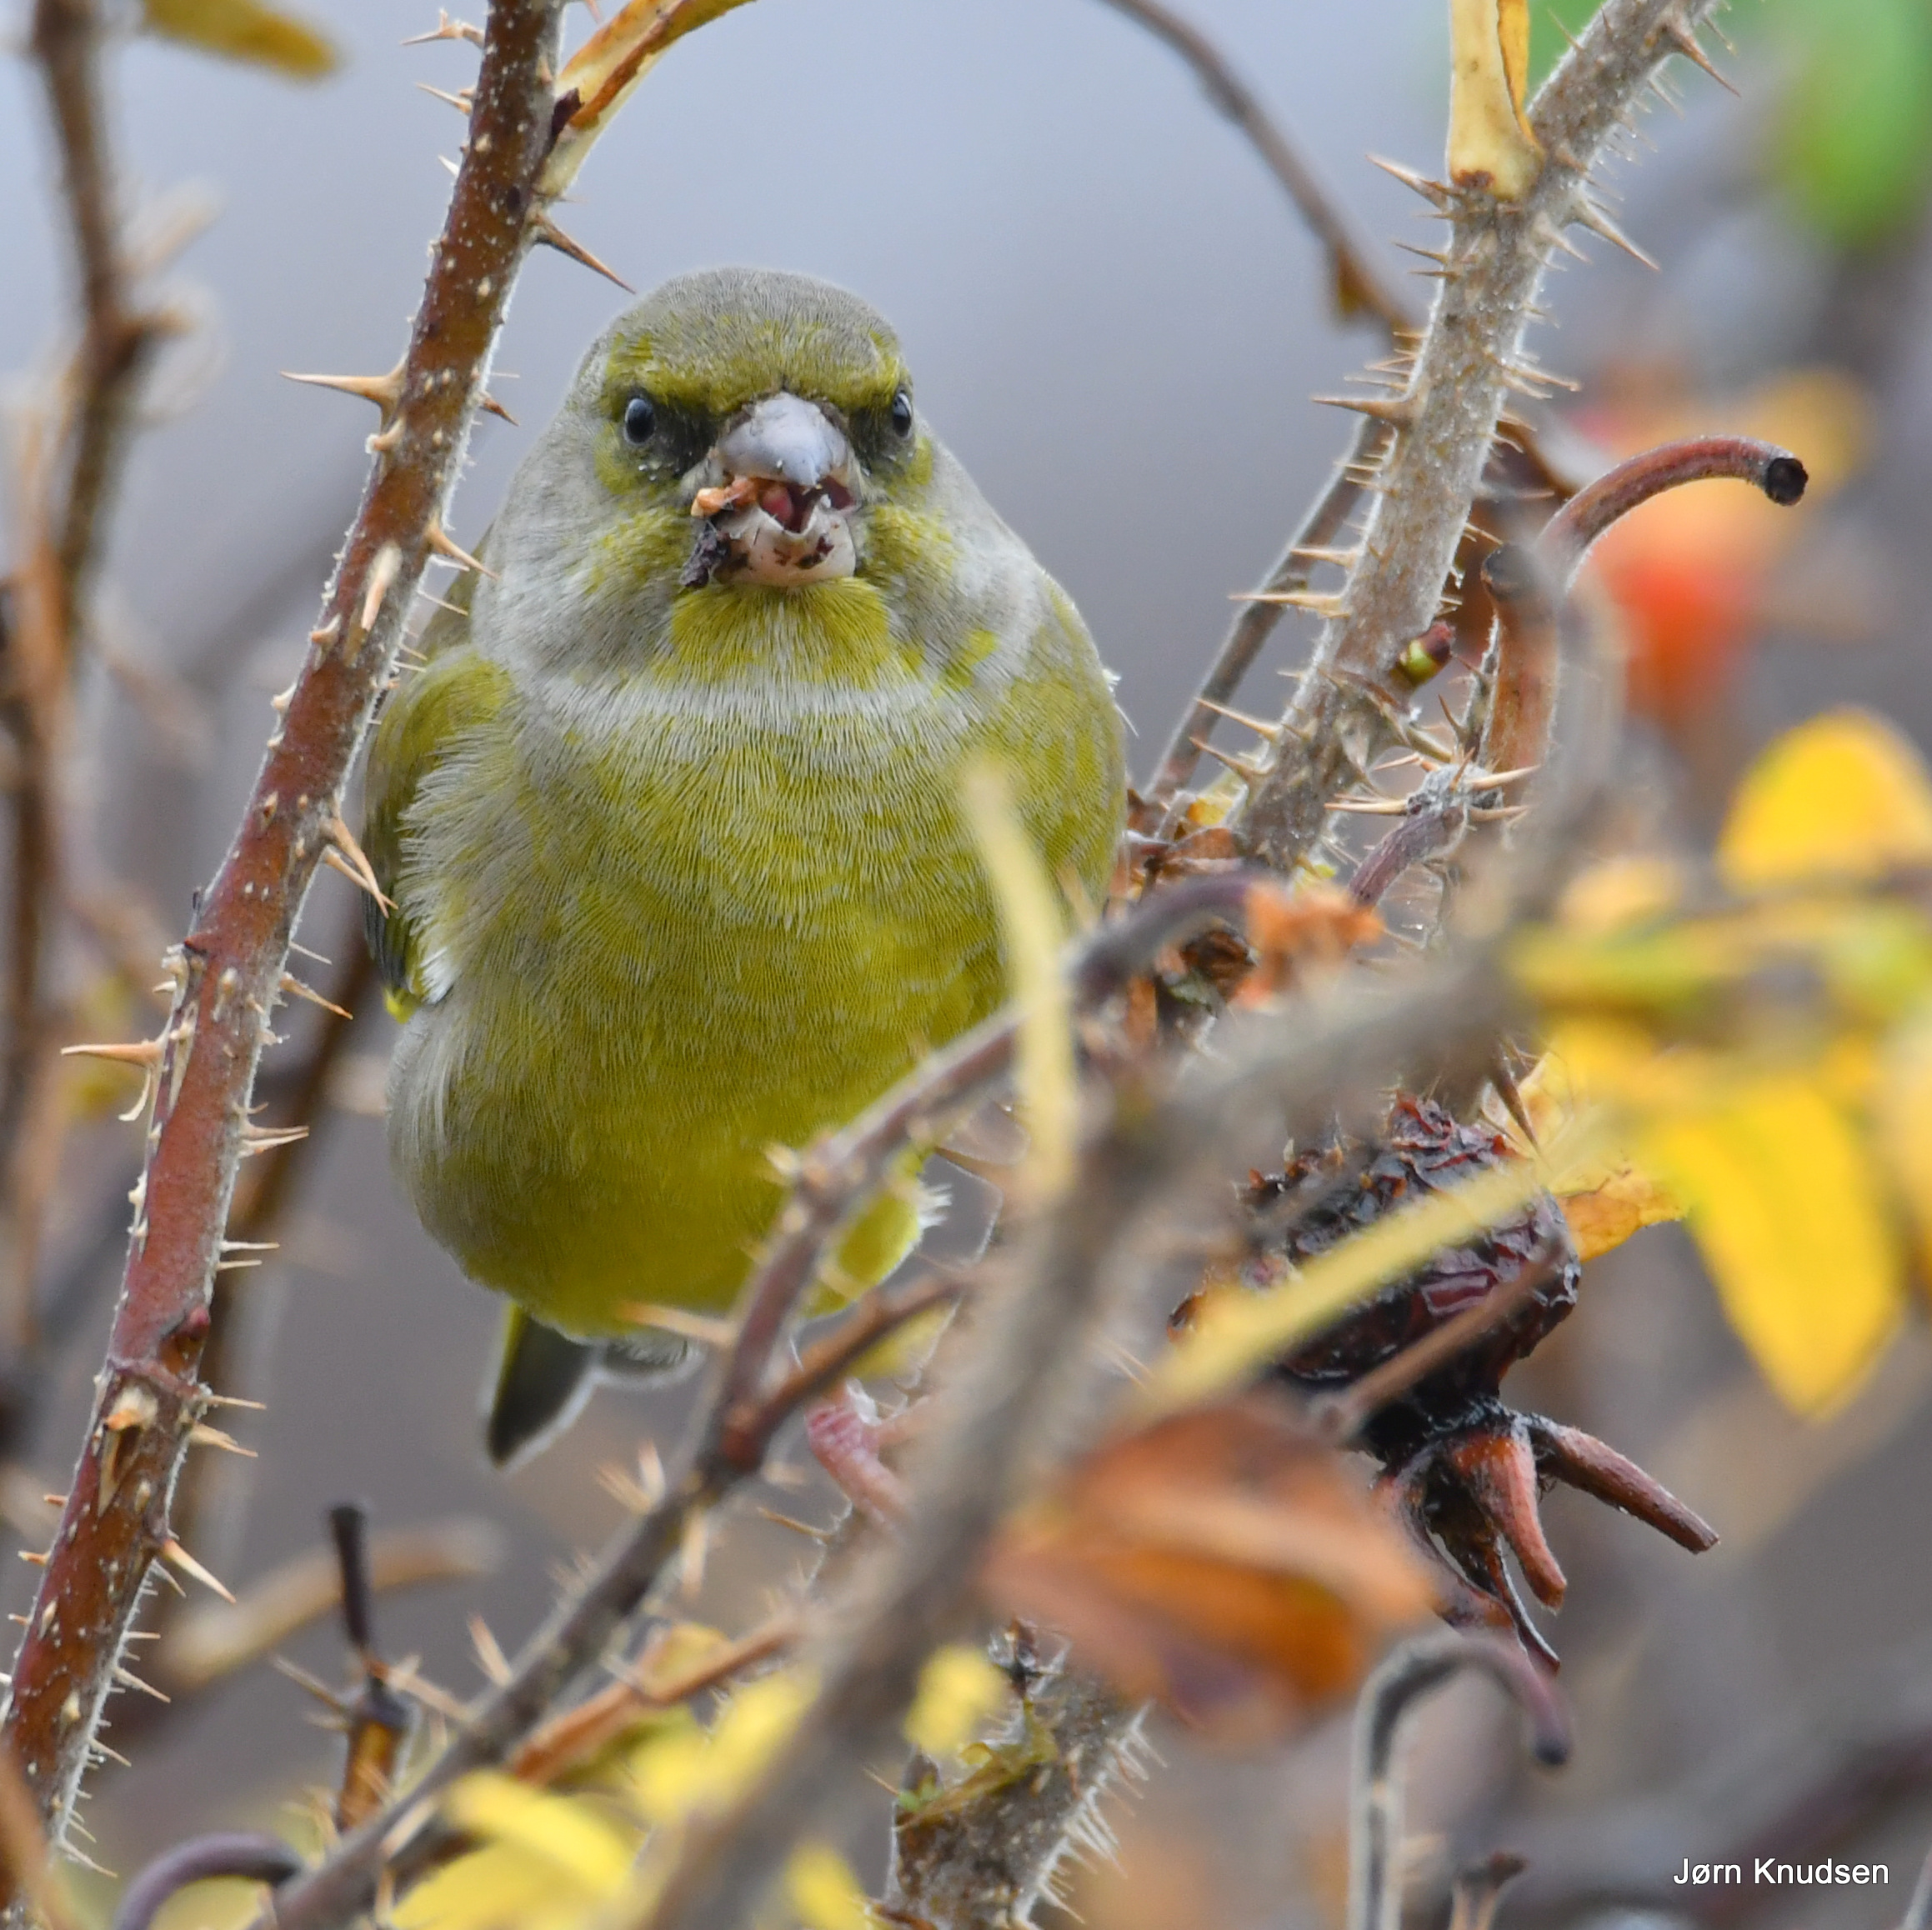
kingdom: Plantae
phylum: Tracheophyta
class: Liliopsida
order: Poales
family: Poaceae
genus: Chloris
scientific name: Chloris chloris
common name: Grønirisk
